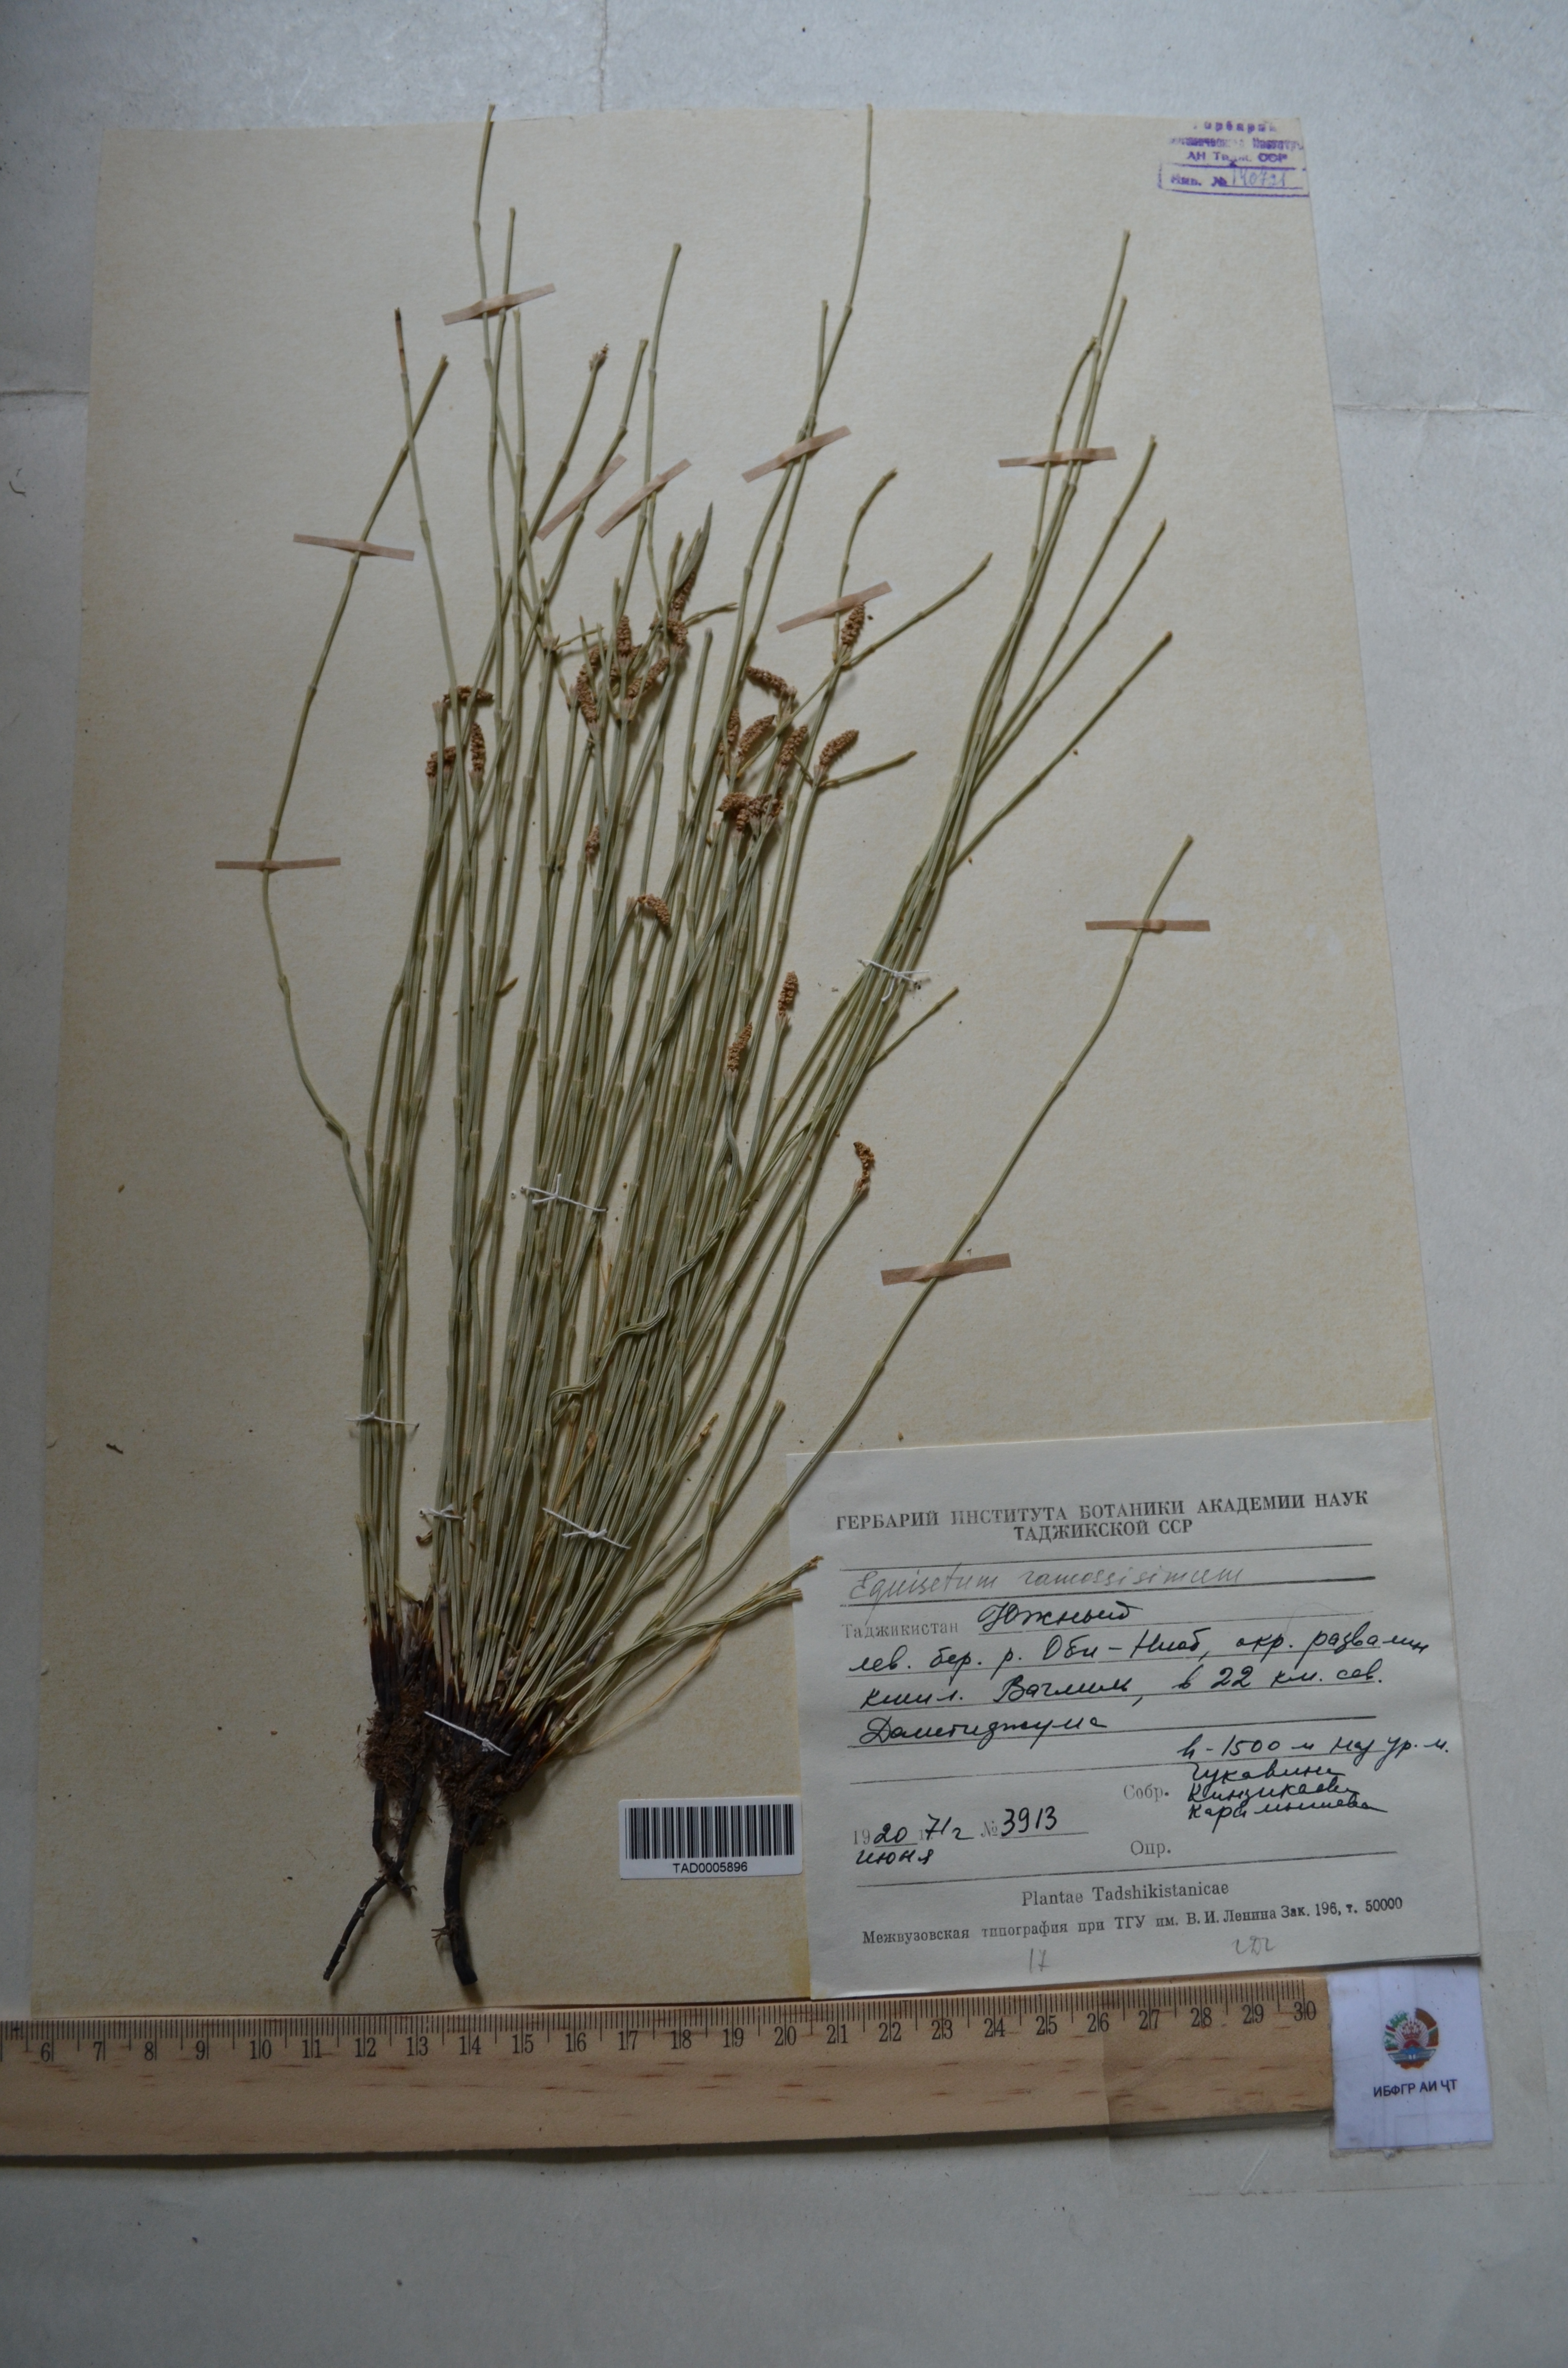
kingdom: Plantae
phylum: Tracheophyta
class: Polypodiopsida
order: Equisetales
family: Equisetaceae
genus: Equisetum
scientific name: Equisetum ramosissimum
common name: Branched horsetail
